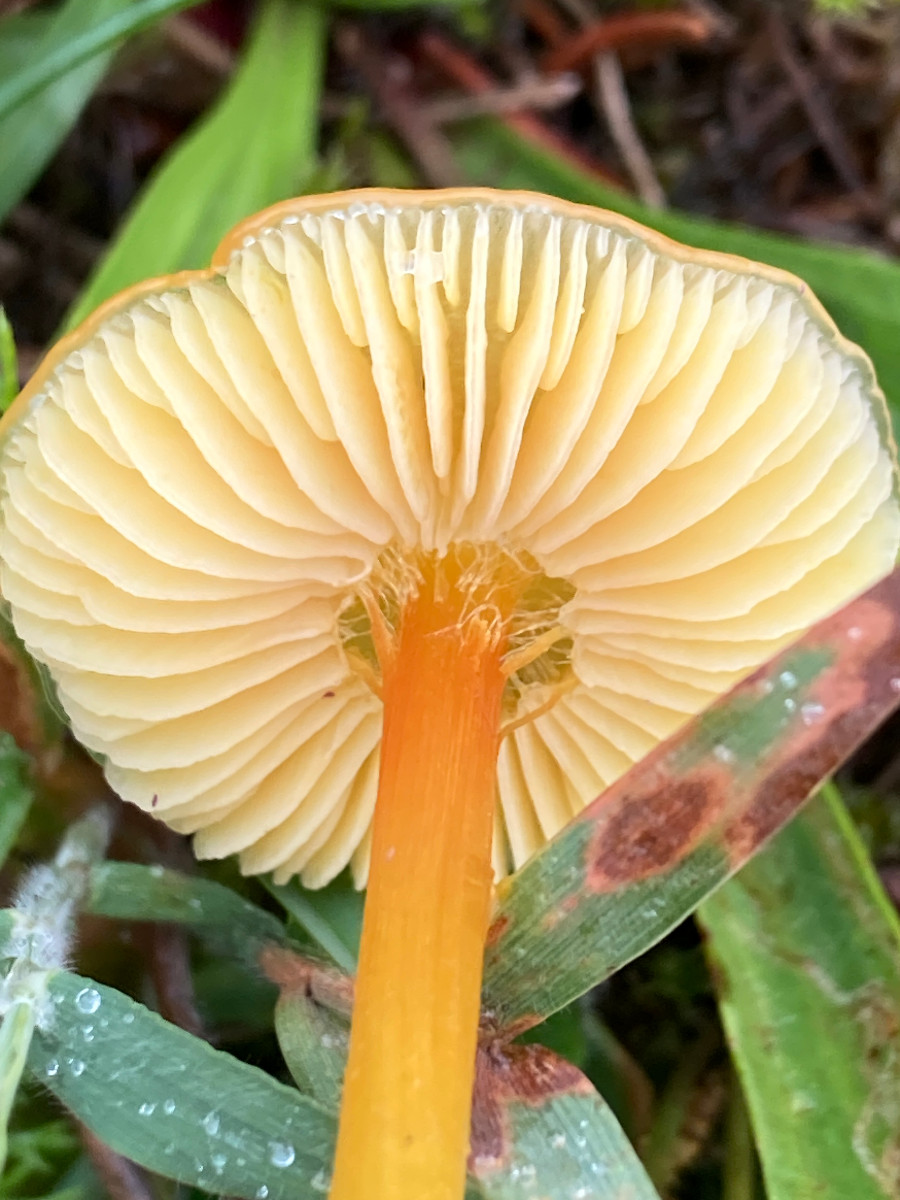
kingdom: Fungi
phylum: Basidiomycota
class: Agaricomycetes
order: Agaricales
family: Hygrophoraceae
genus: Hygrocybe
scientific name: Hygrocybe
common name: vokshat
